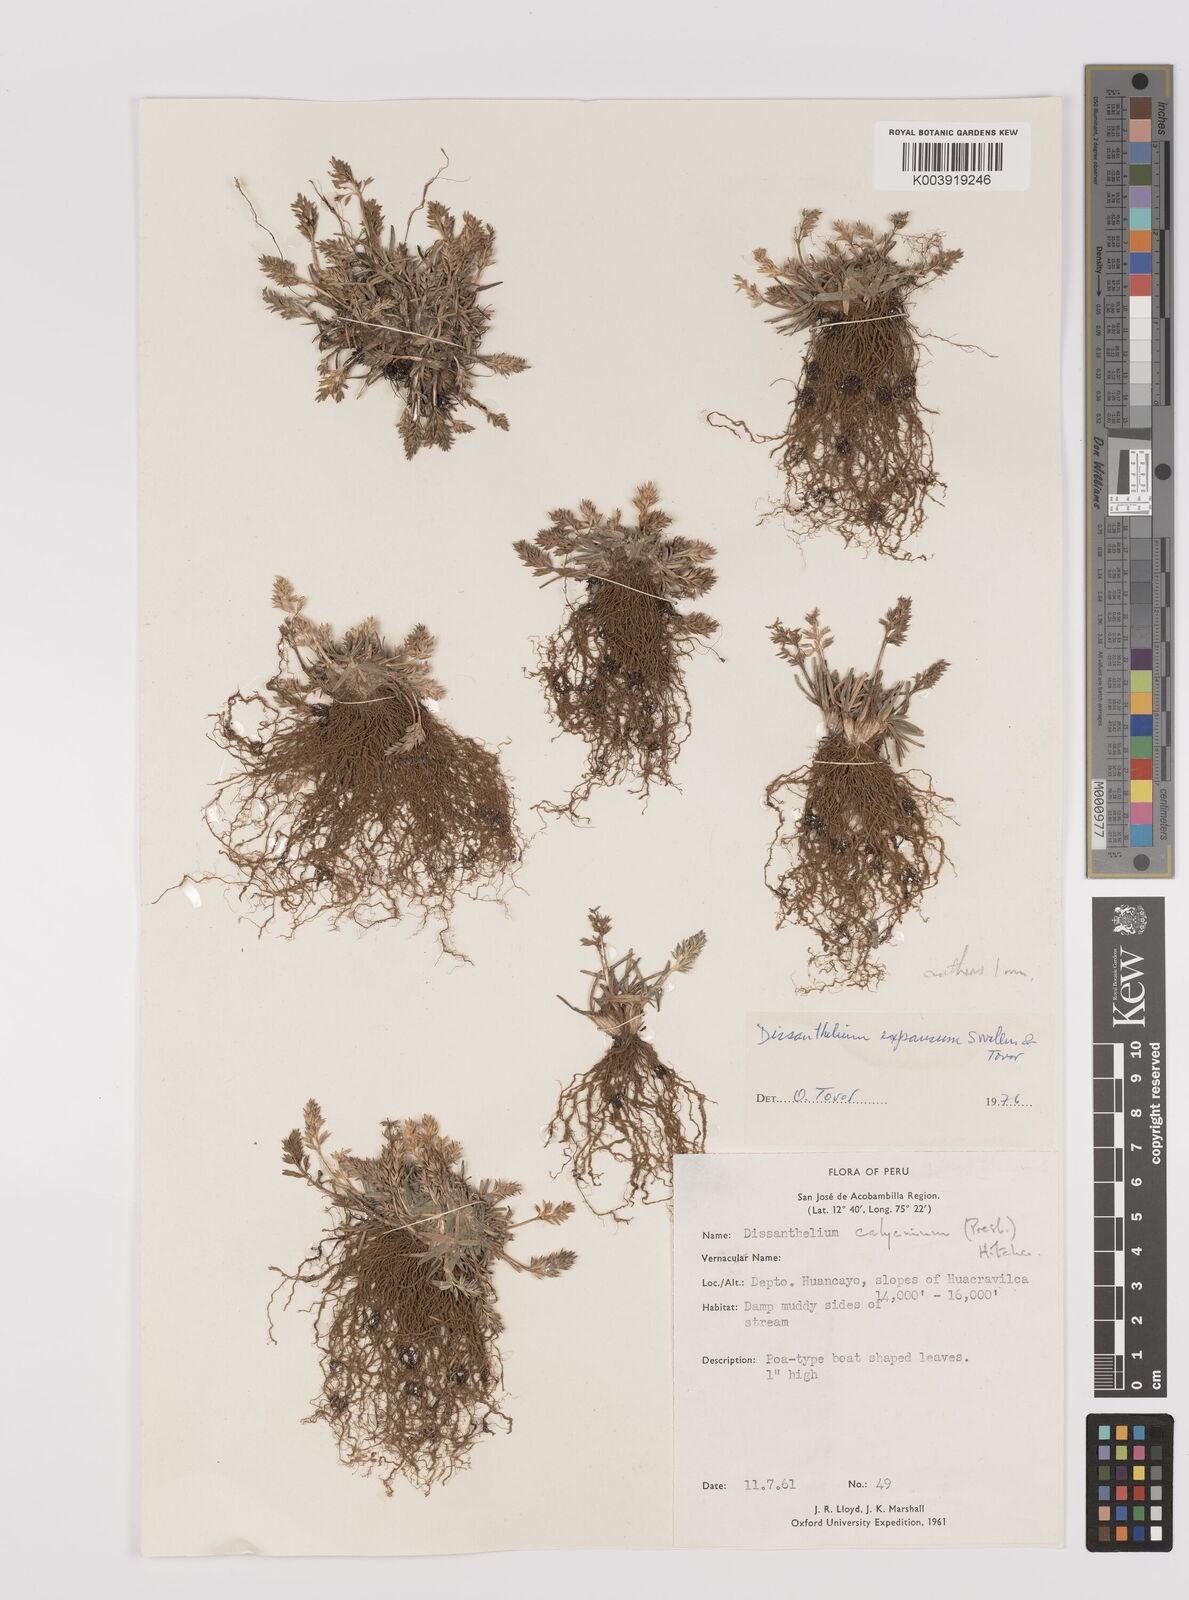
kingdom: Plantae
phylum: Tracheophyta
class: Liliopsida
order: Poales
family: Poaceae
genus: Poa
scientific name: Poa calycina
